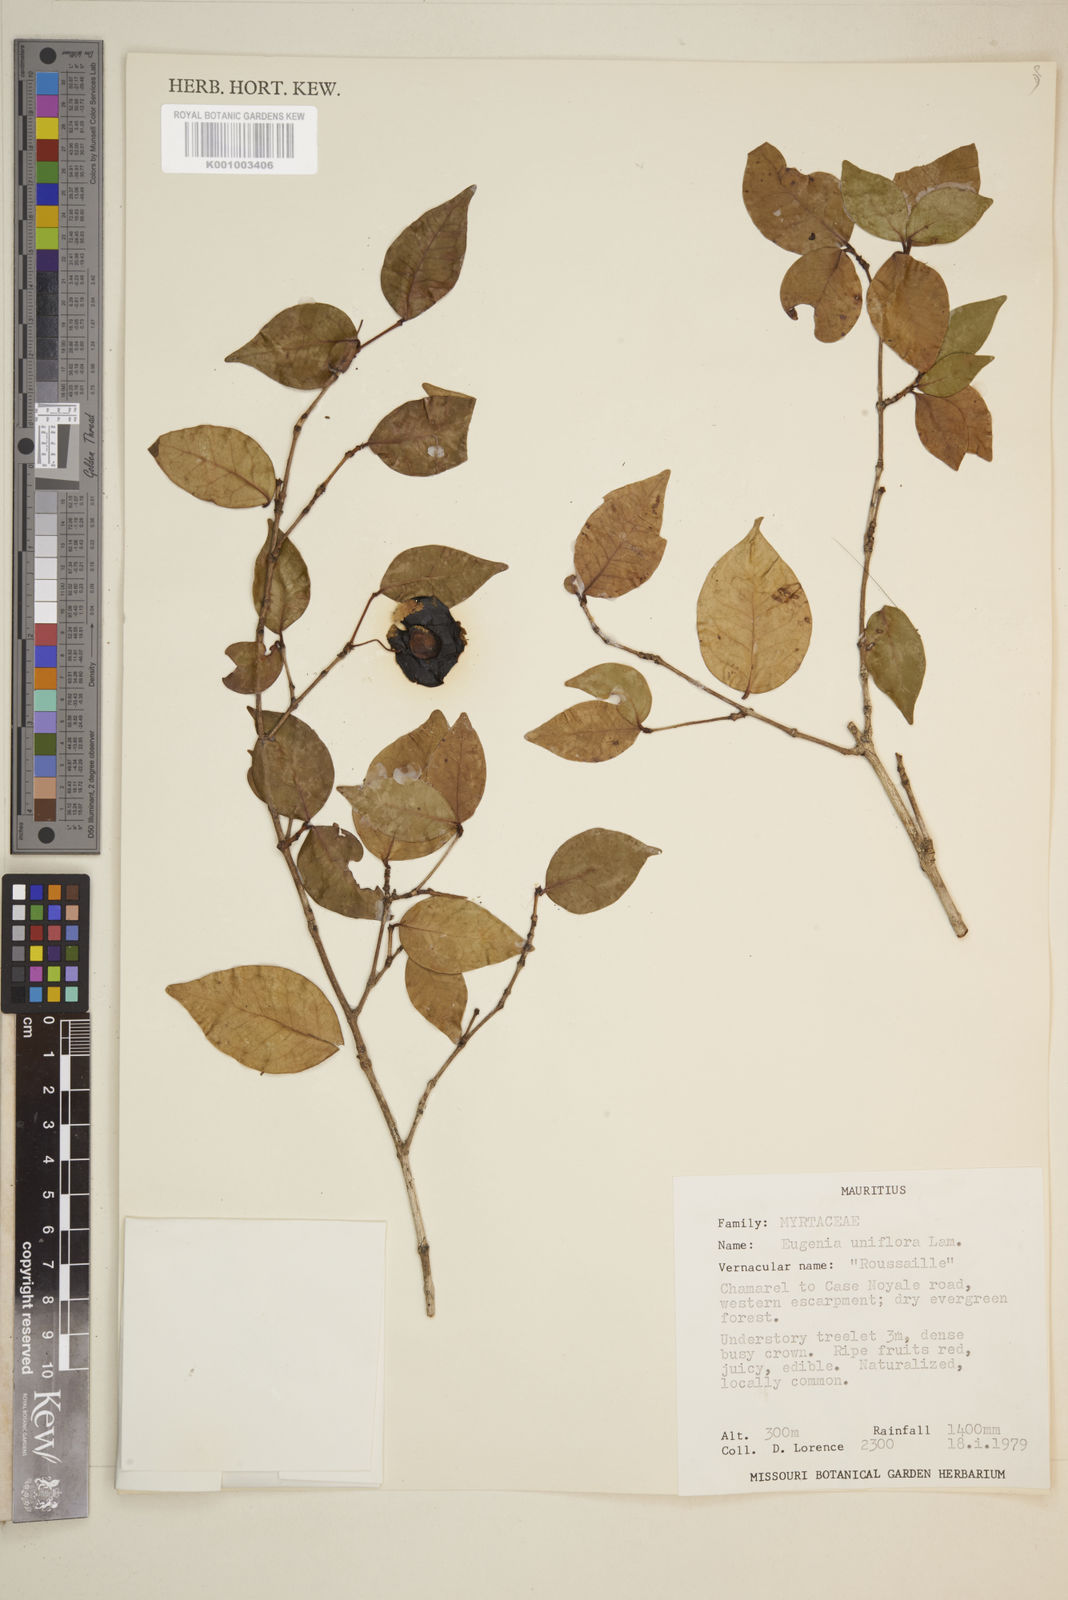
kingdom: Plantae
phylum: Tracheophyta
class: Magnoliopsida
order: Myrtales
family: Myrtaceae
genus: Eugenia
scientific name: Eugenia uniflora
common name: Surinam cherry
